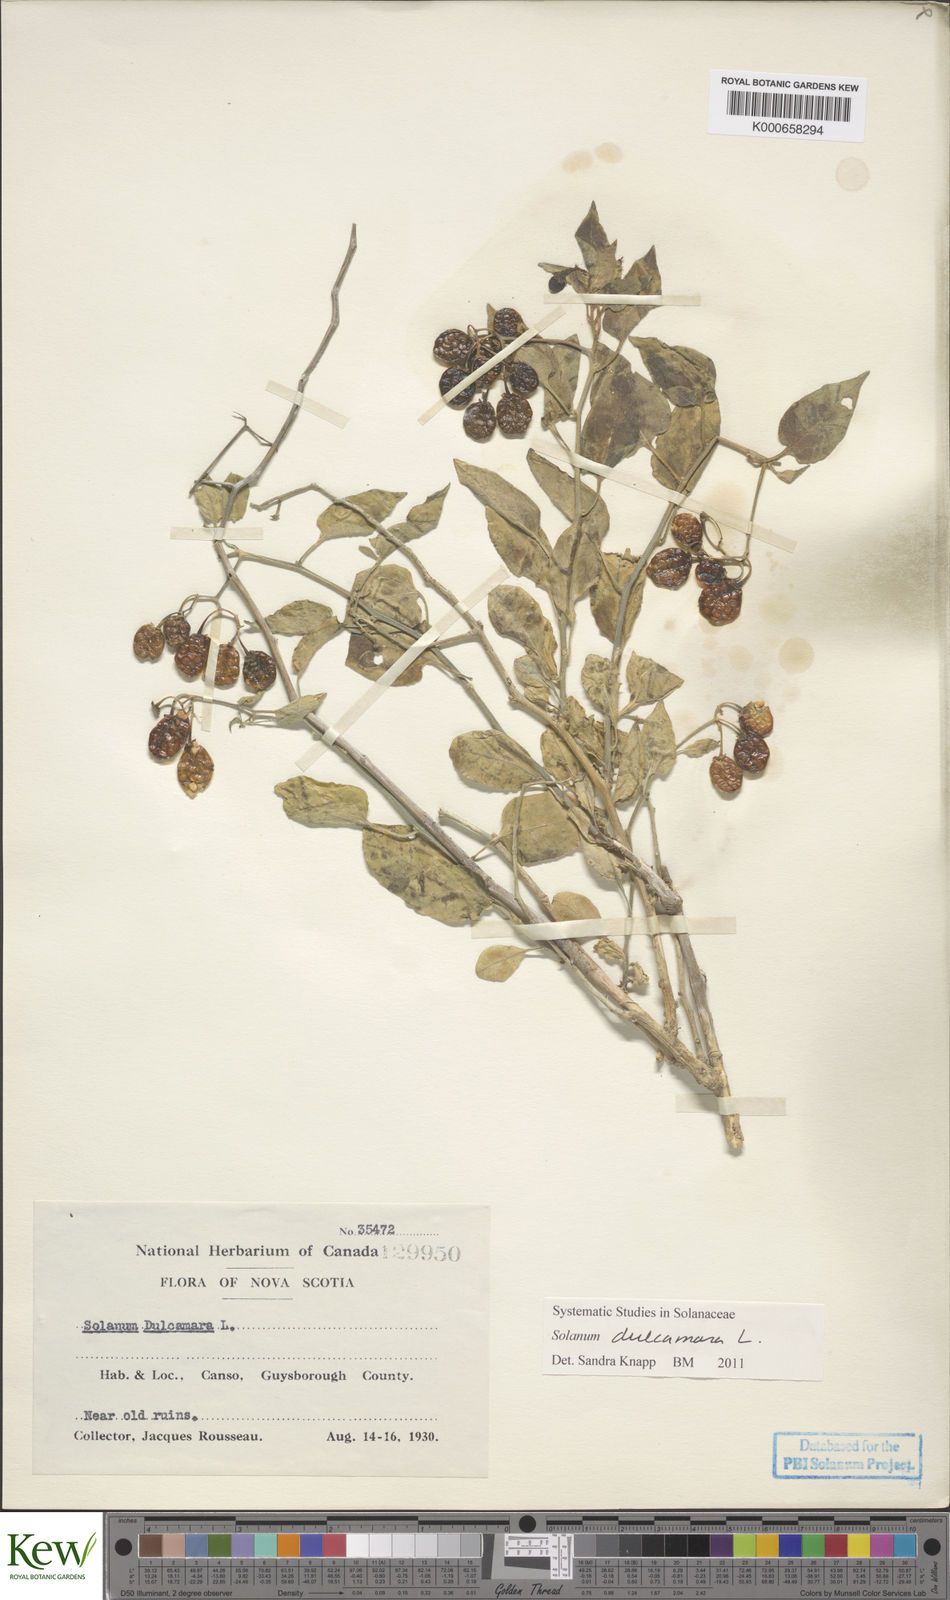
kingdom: Plantae
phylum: Tracheophyta
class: Magnoliopsida
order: Solanales
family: Solanaceae
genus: Solanum
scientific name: Solanum dulcamara
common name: Climbing nightshade
